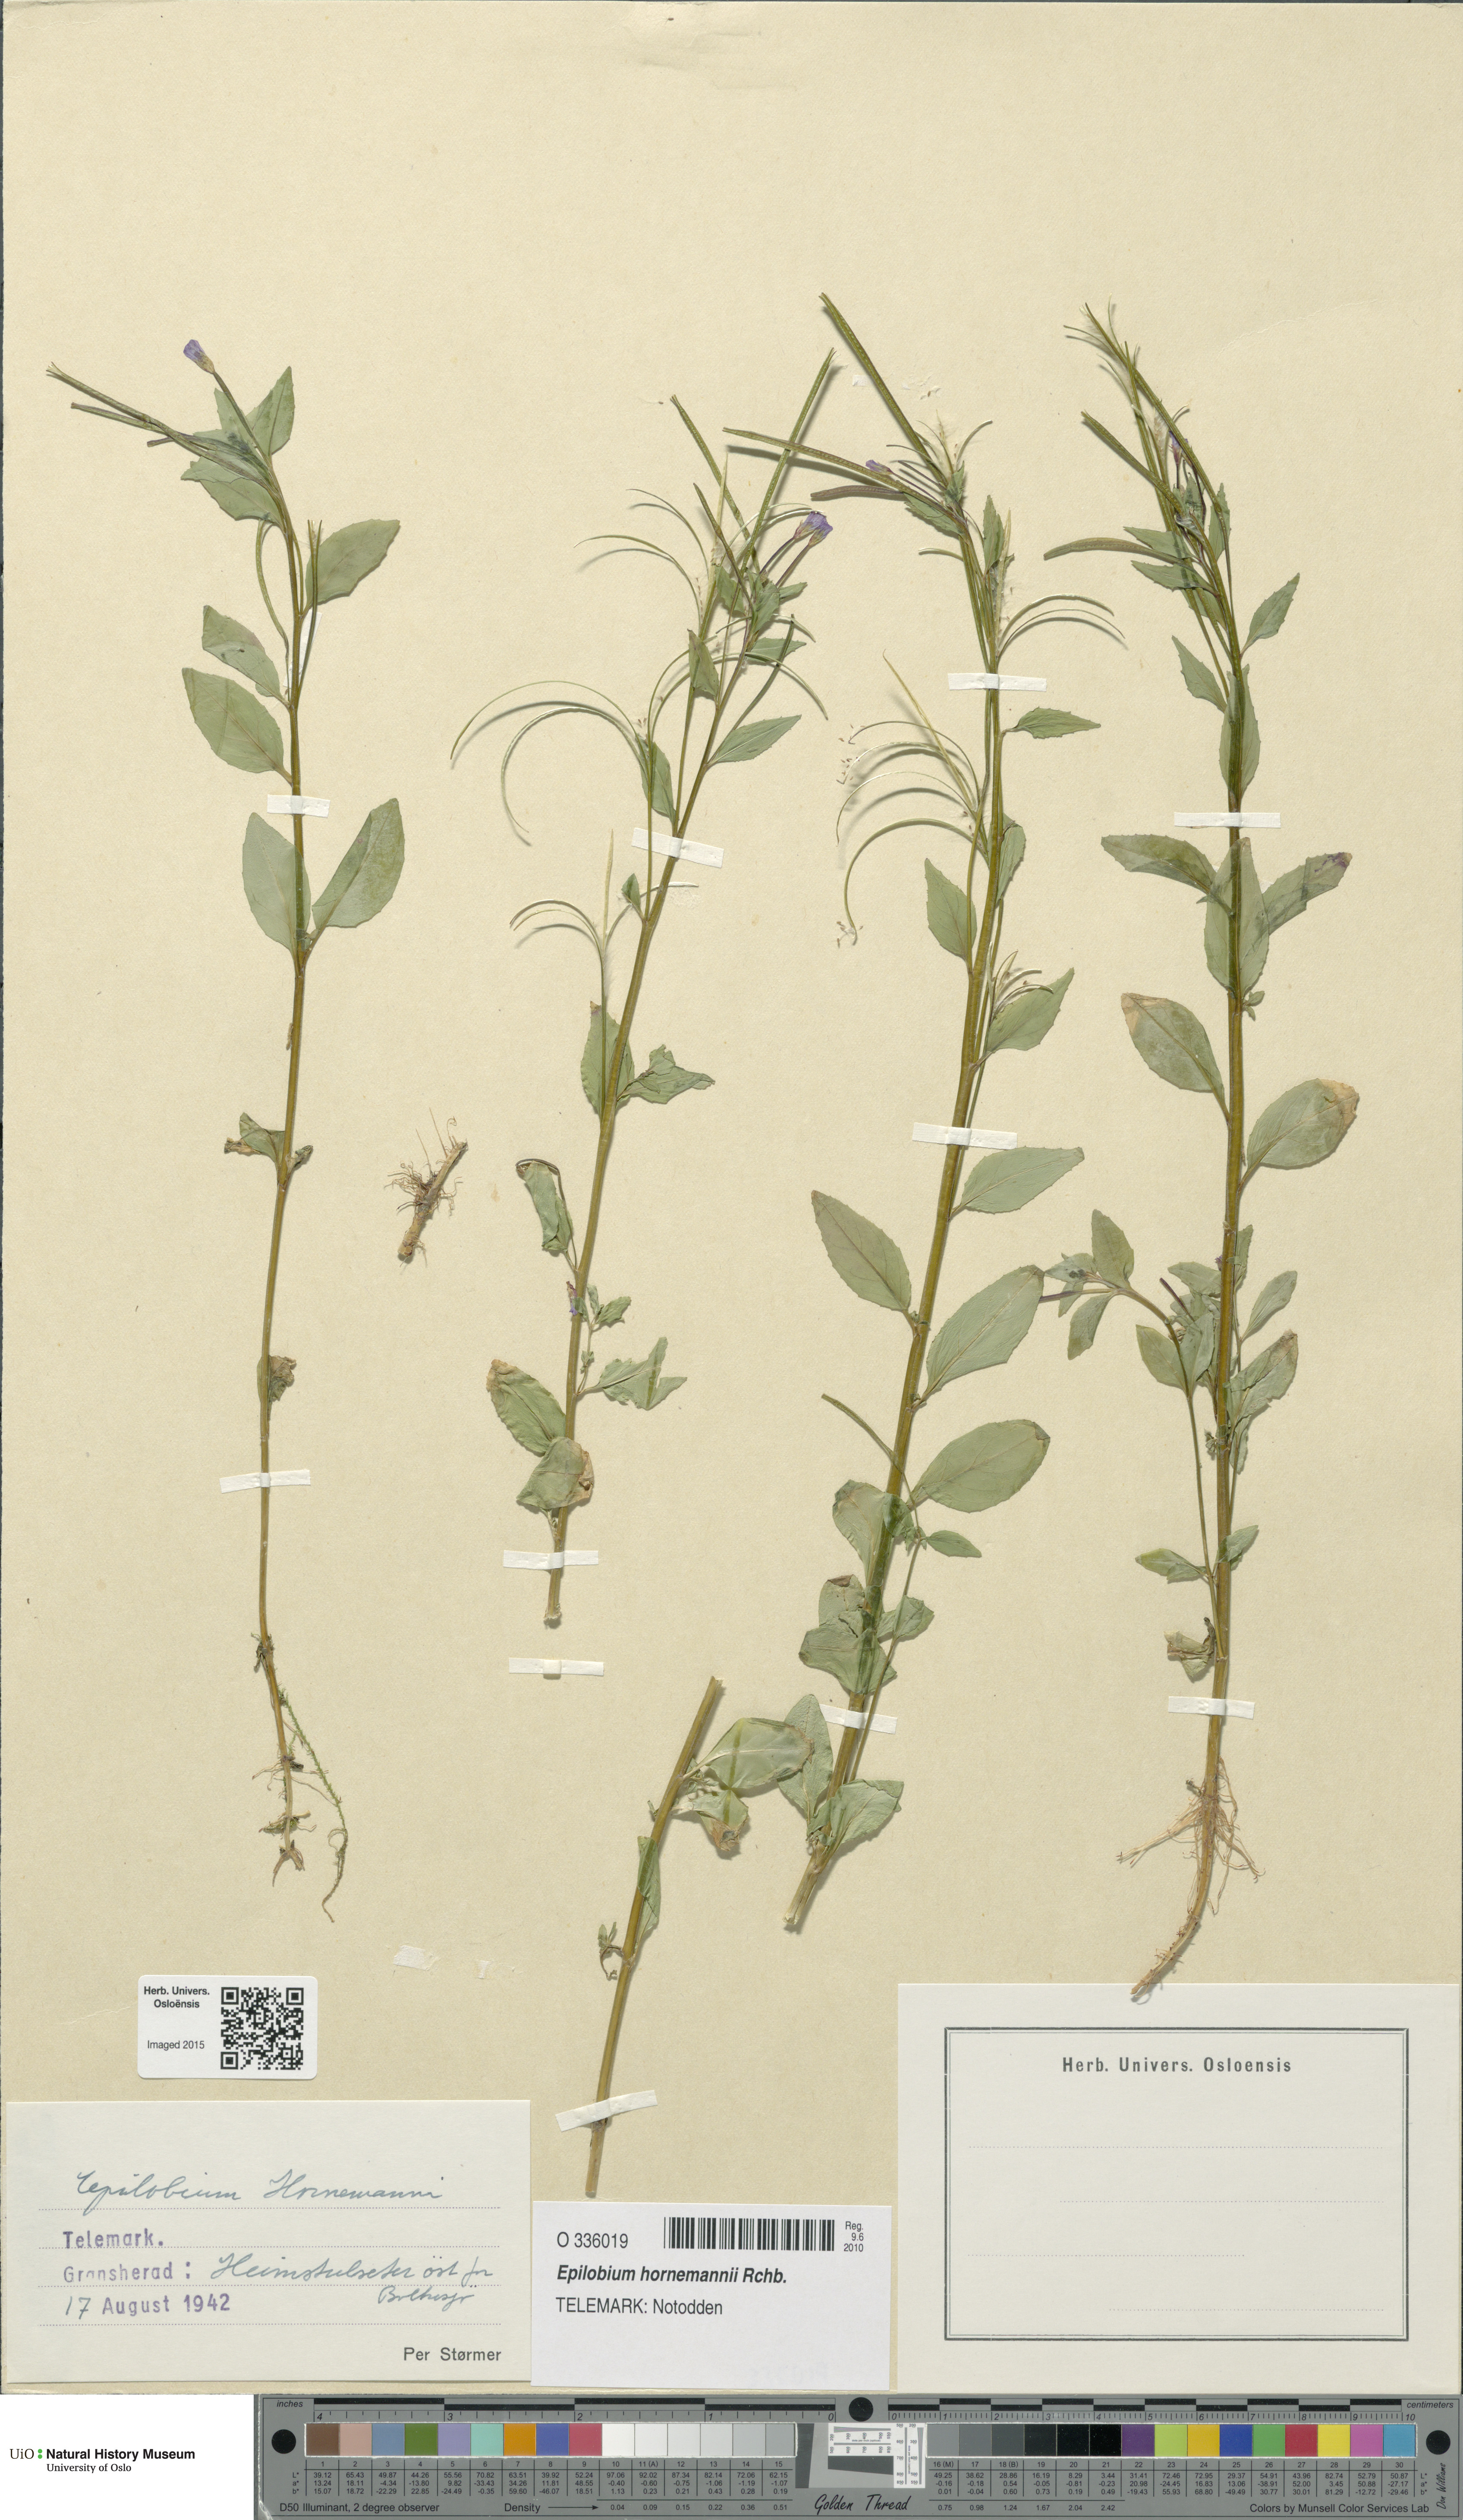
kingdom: Plantae
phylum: Tracheophyta
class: Magnoliopsida
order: Myrtales
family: Onagraceae
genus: Epilobium
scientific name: Epilobium hornemannii
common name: Hornemann's willowherb
